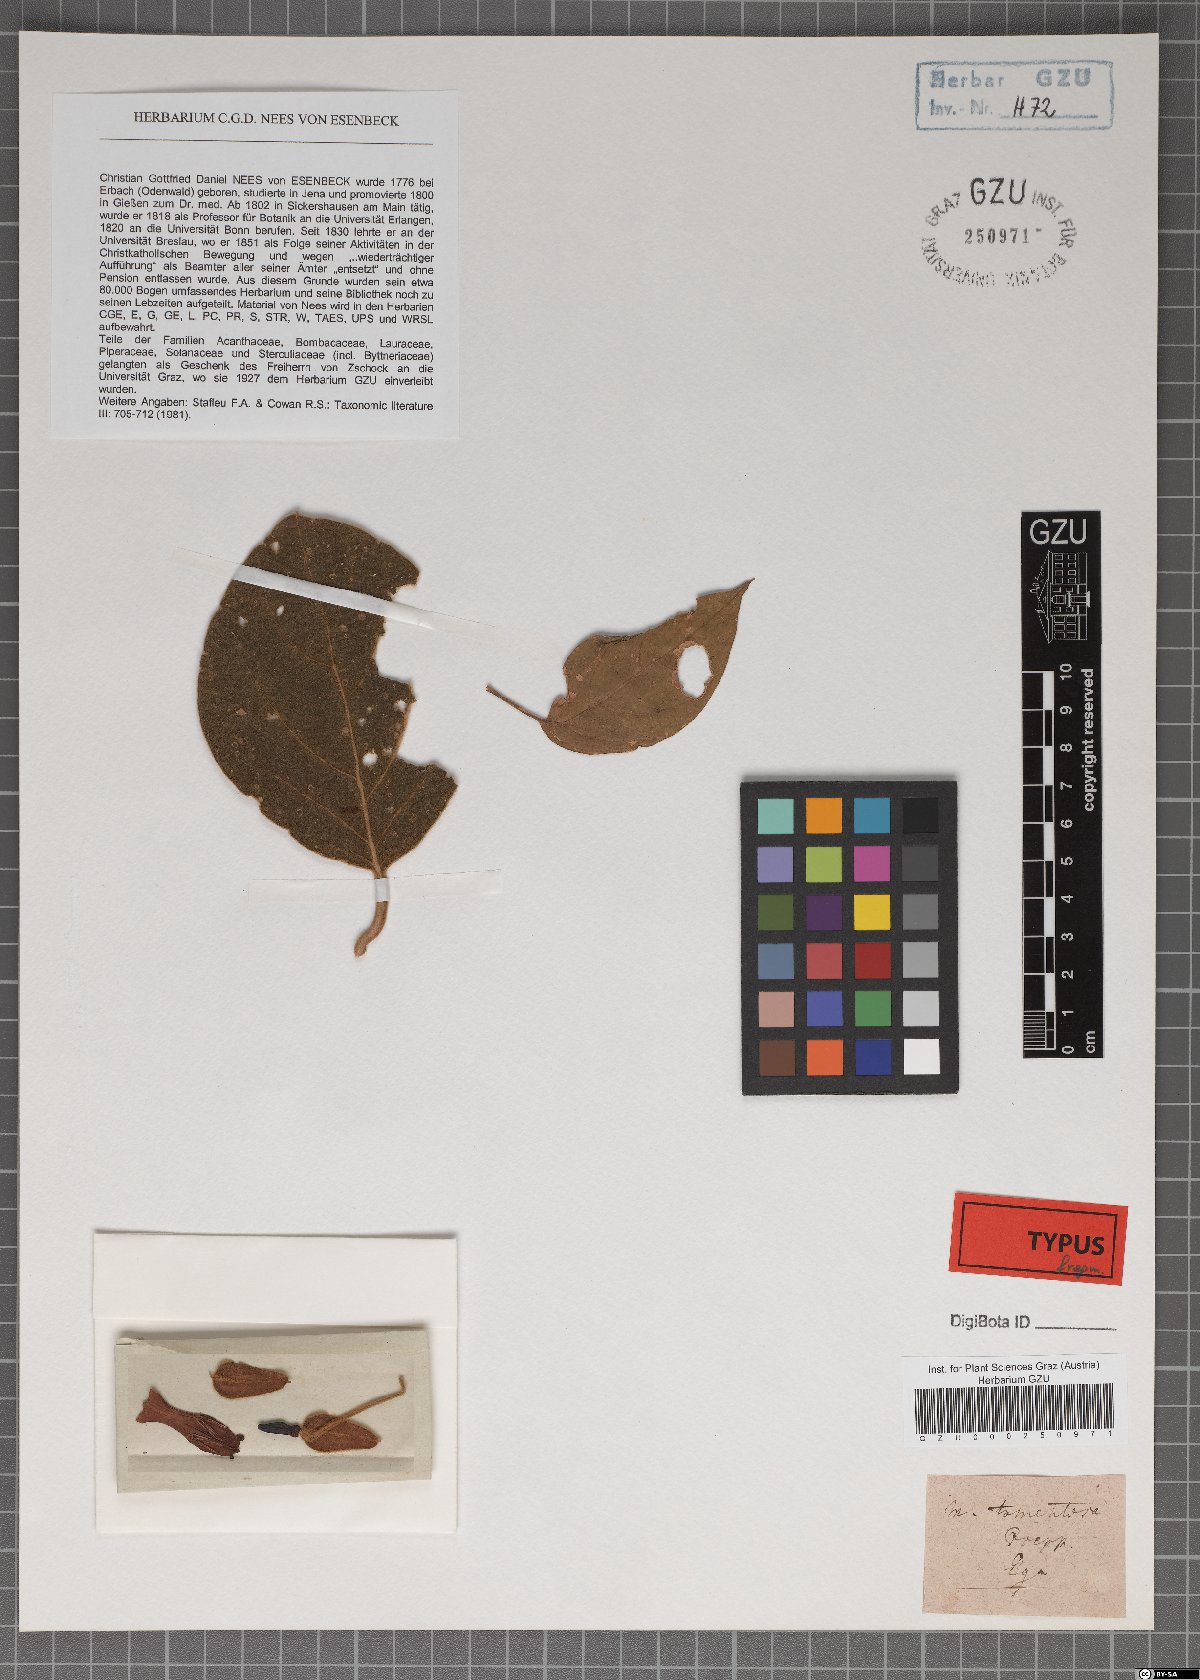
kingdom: Plantae
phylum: Tracheophyta
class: Magnoliopsida
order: Lamiales
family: Acanthaceae
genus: Mendoncia
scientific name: Mendoncia tomentosa
